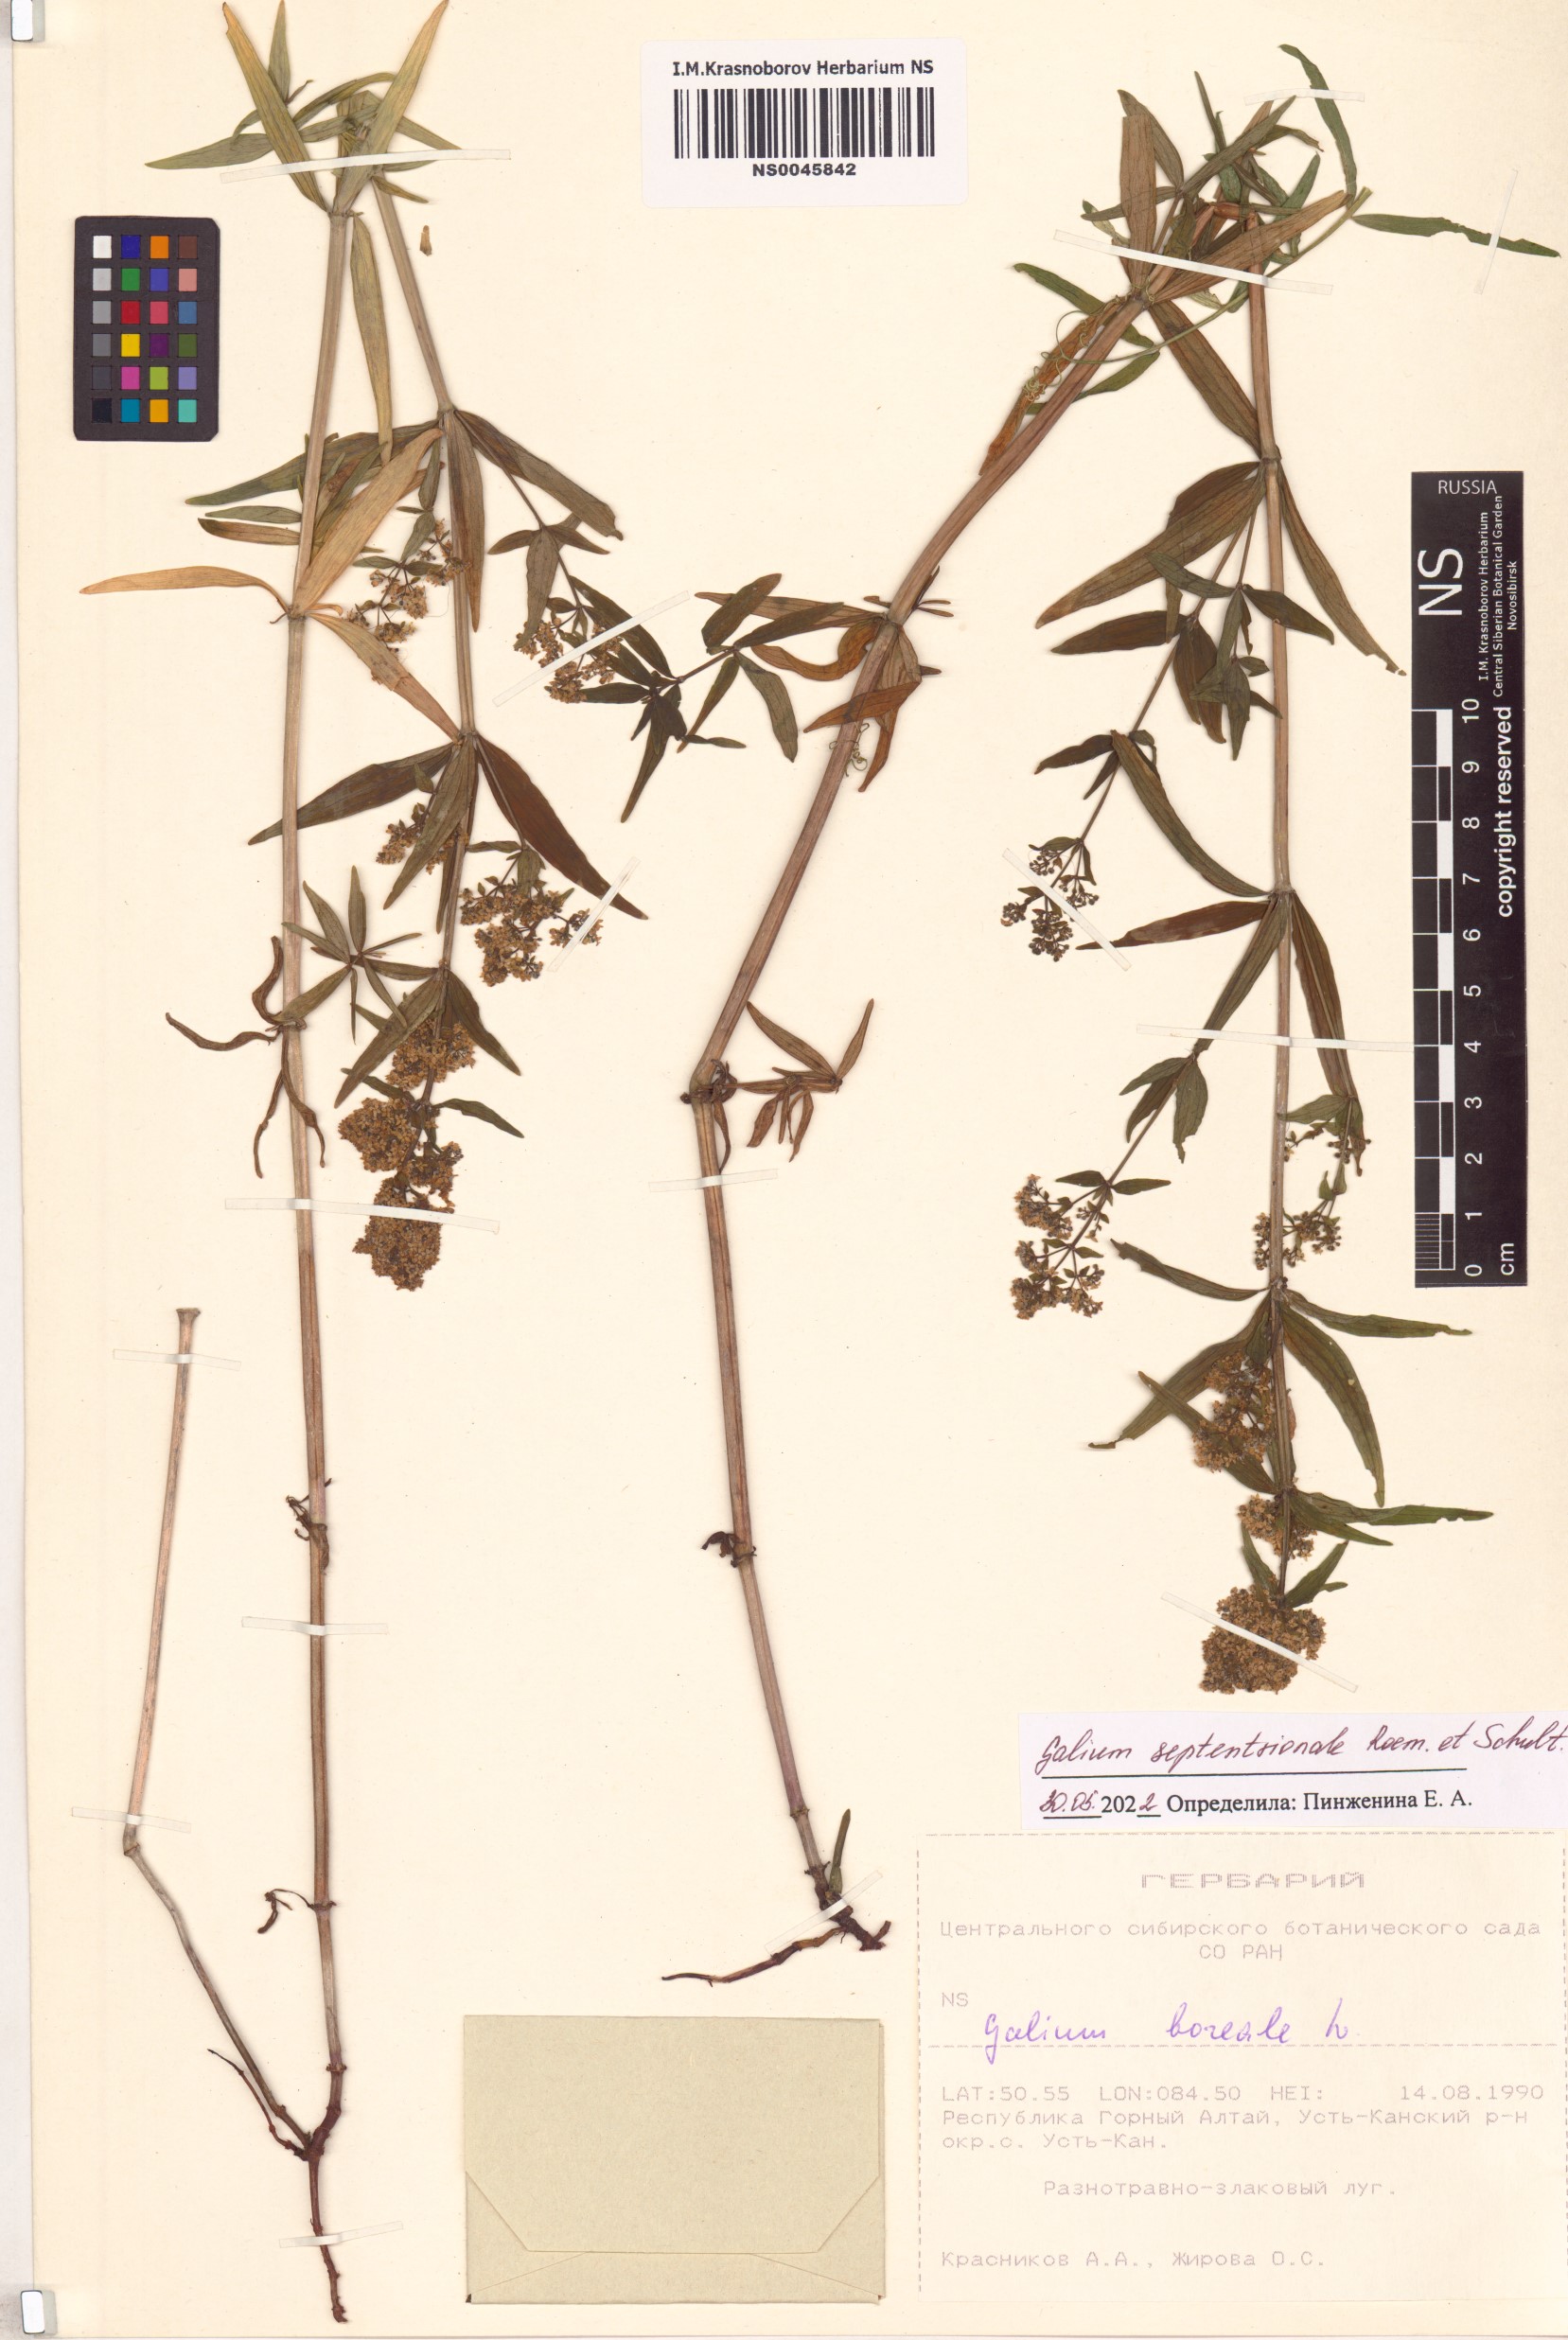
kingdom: Plantae
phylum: Tracheophyta
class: Magnoliopsida
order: Gentianales
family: Rubiaceae
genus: Galium
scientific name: Galium boreale
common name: Northern bedstraw
